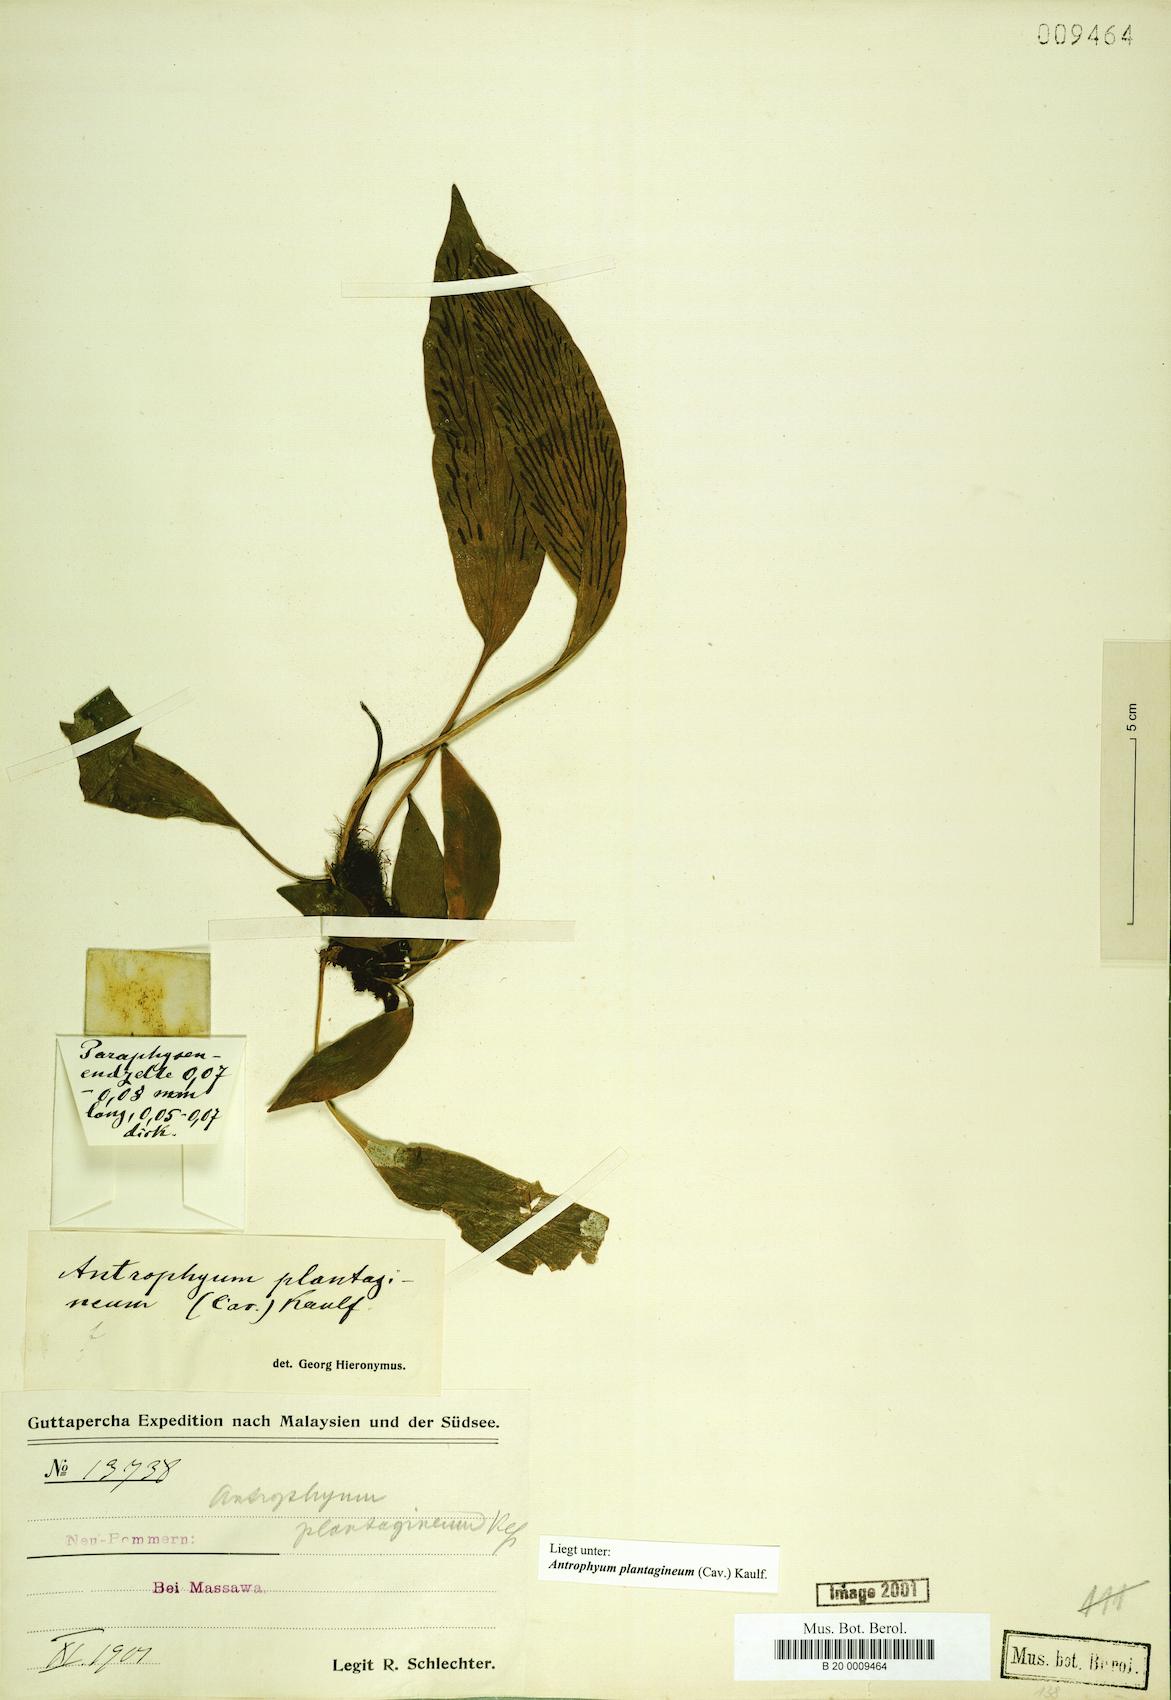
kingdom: Plantae
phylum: Tracheophyta
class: Polypodiopsida
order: Polypodiales
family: Pteridaceae
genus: Antrophyum
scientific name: Antrophyum plantagineum
